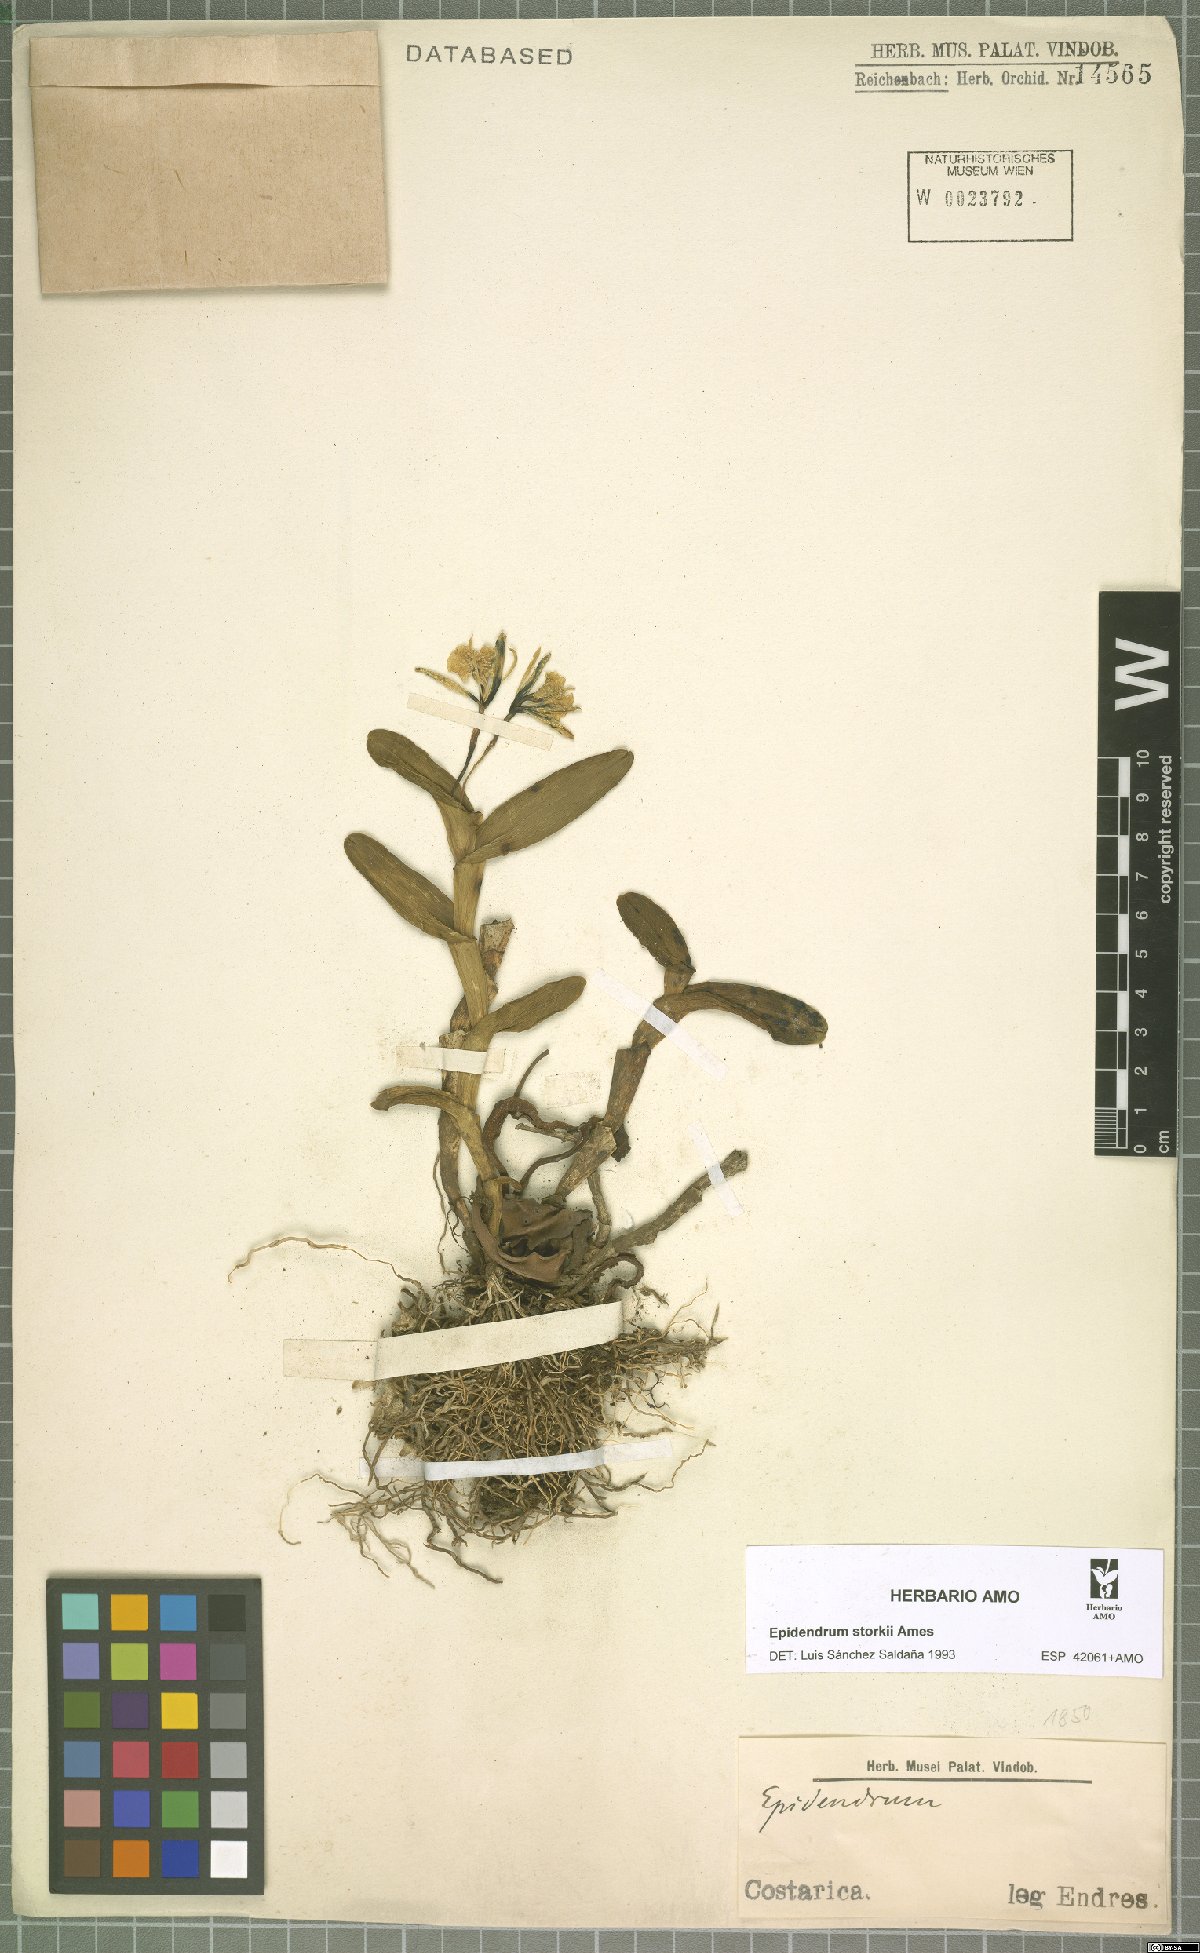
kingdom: Plantae
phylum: Tracheophyta
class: Liliopsida
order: Asparagales
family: Orchidaceae
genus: Epidendrum
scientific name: Epidendrum storkii
